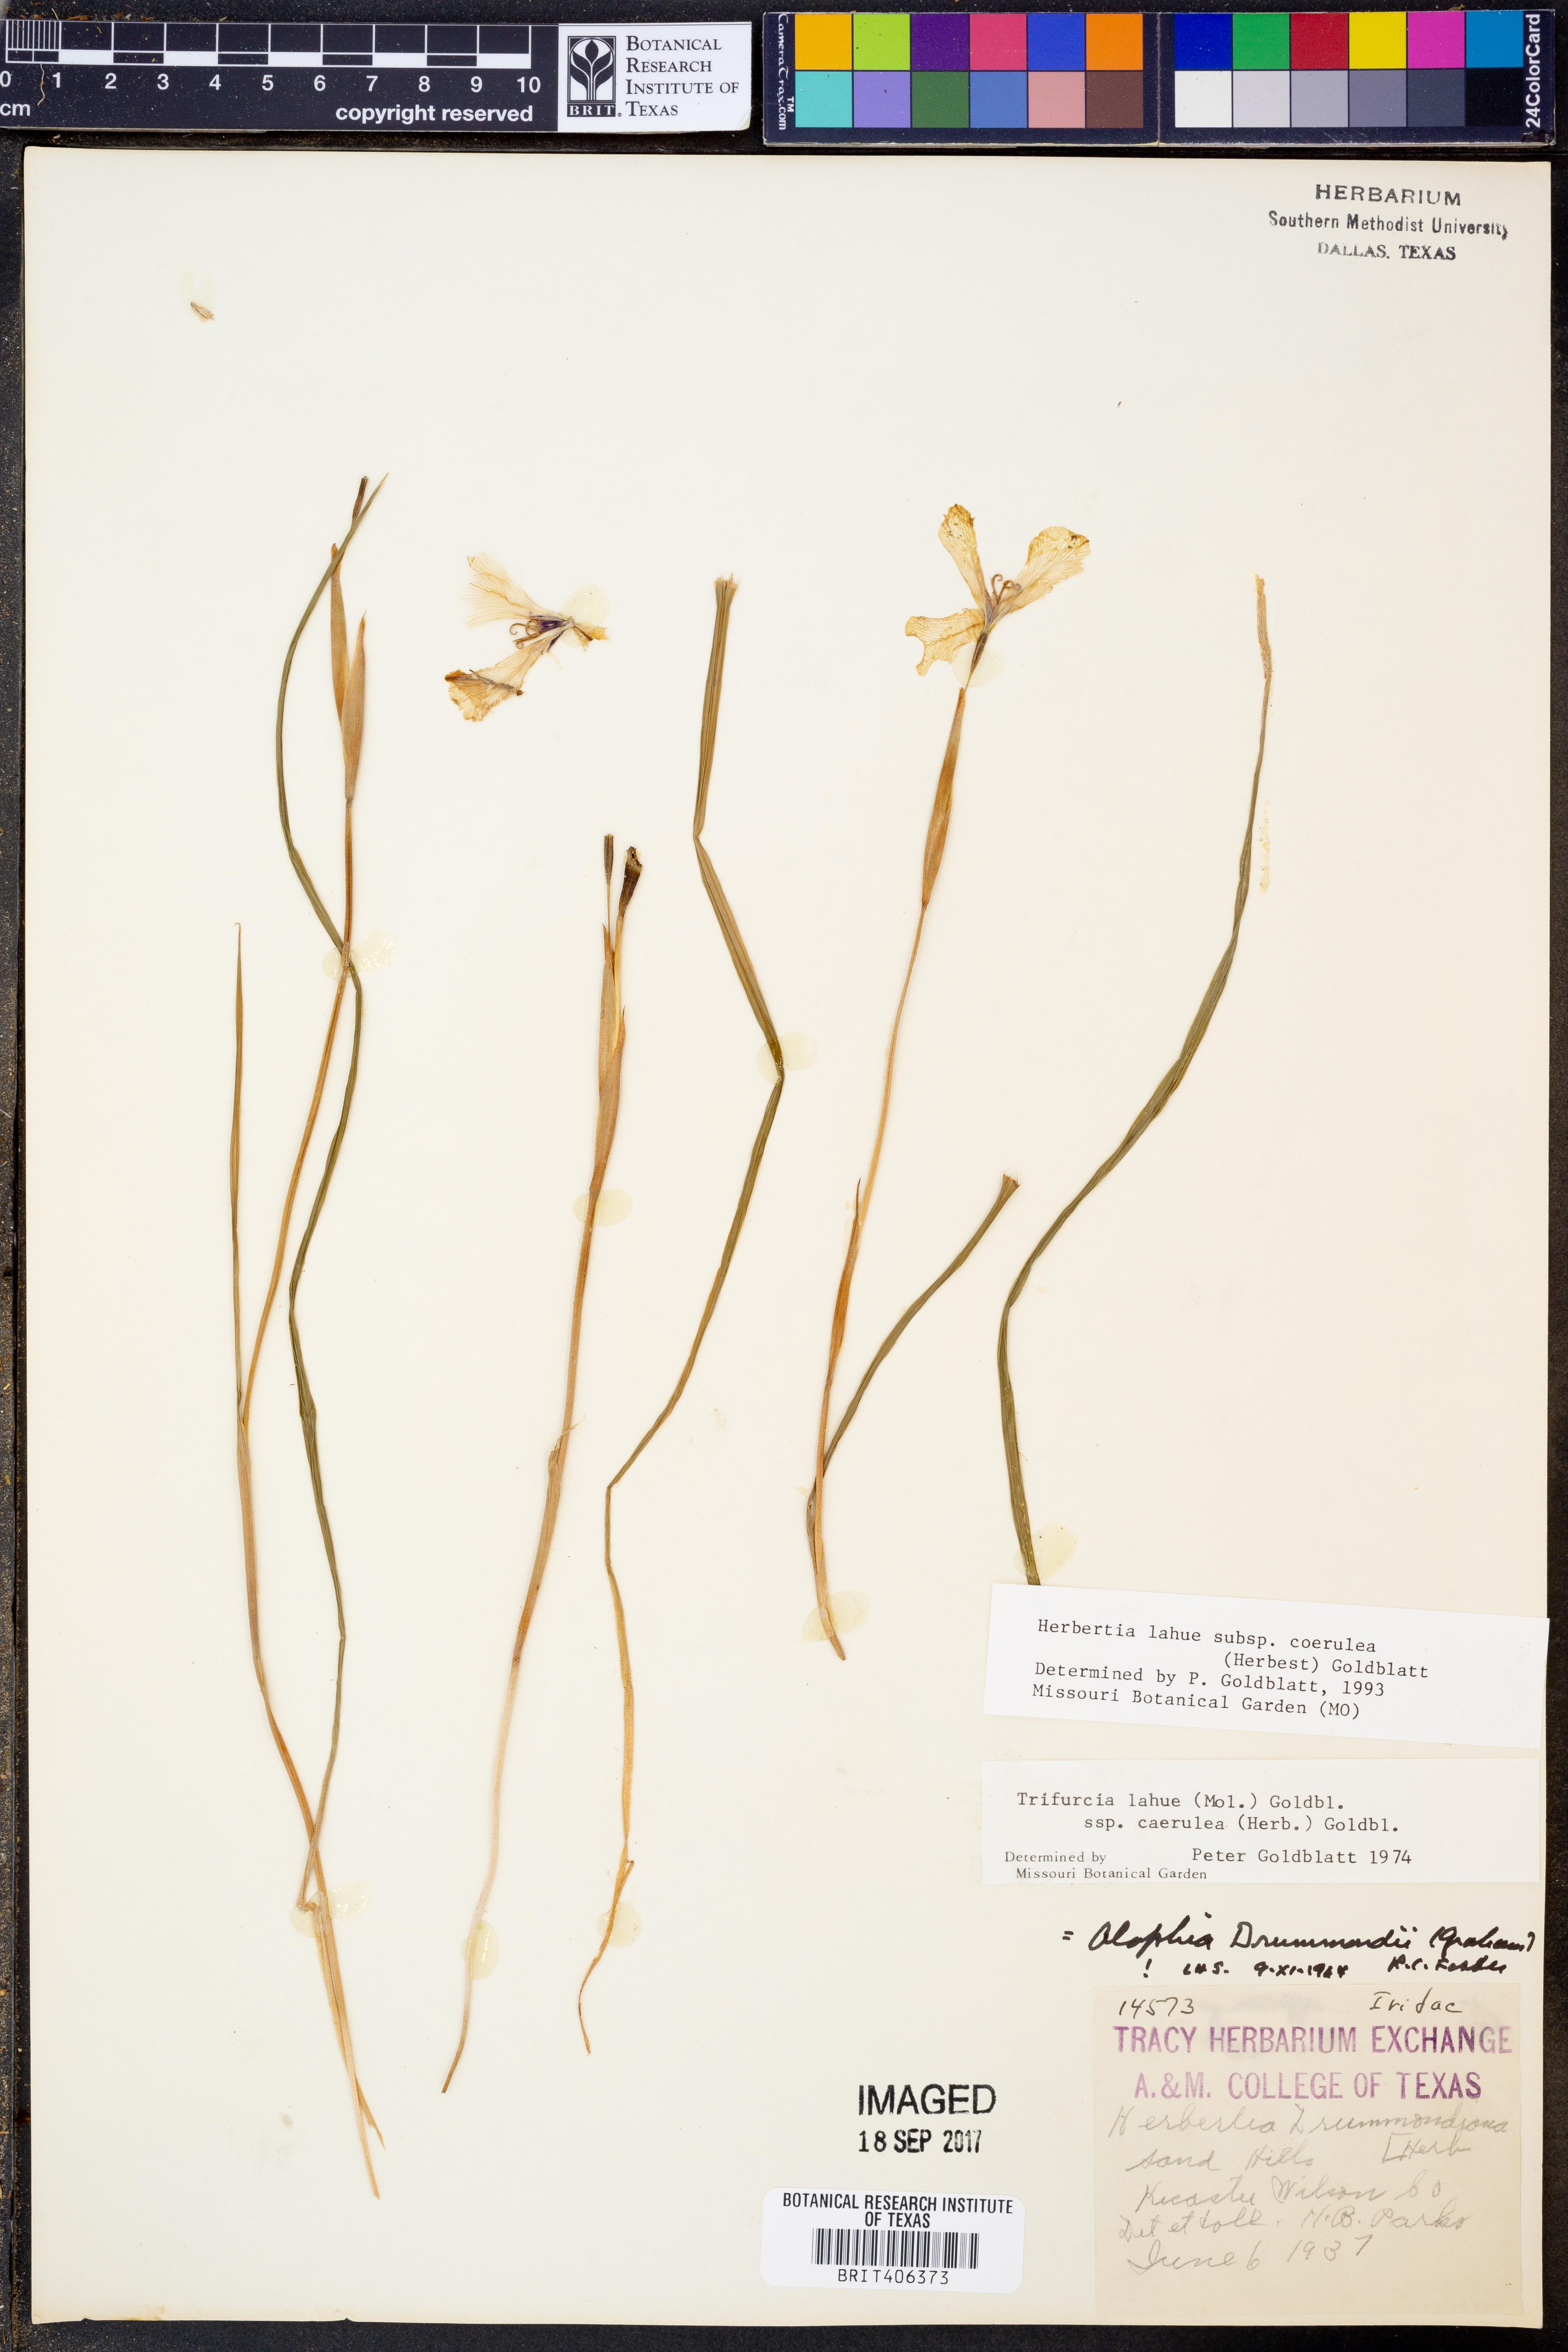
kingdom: Plantae
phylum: Tracheophyta
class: Liliopsida
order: Asparagales
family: Iridaceae
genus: Herbertia
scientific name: Herbertia lahue
